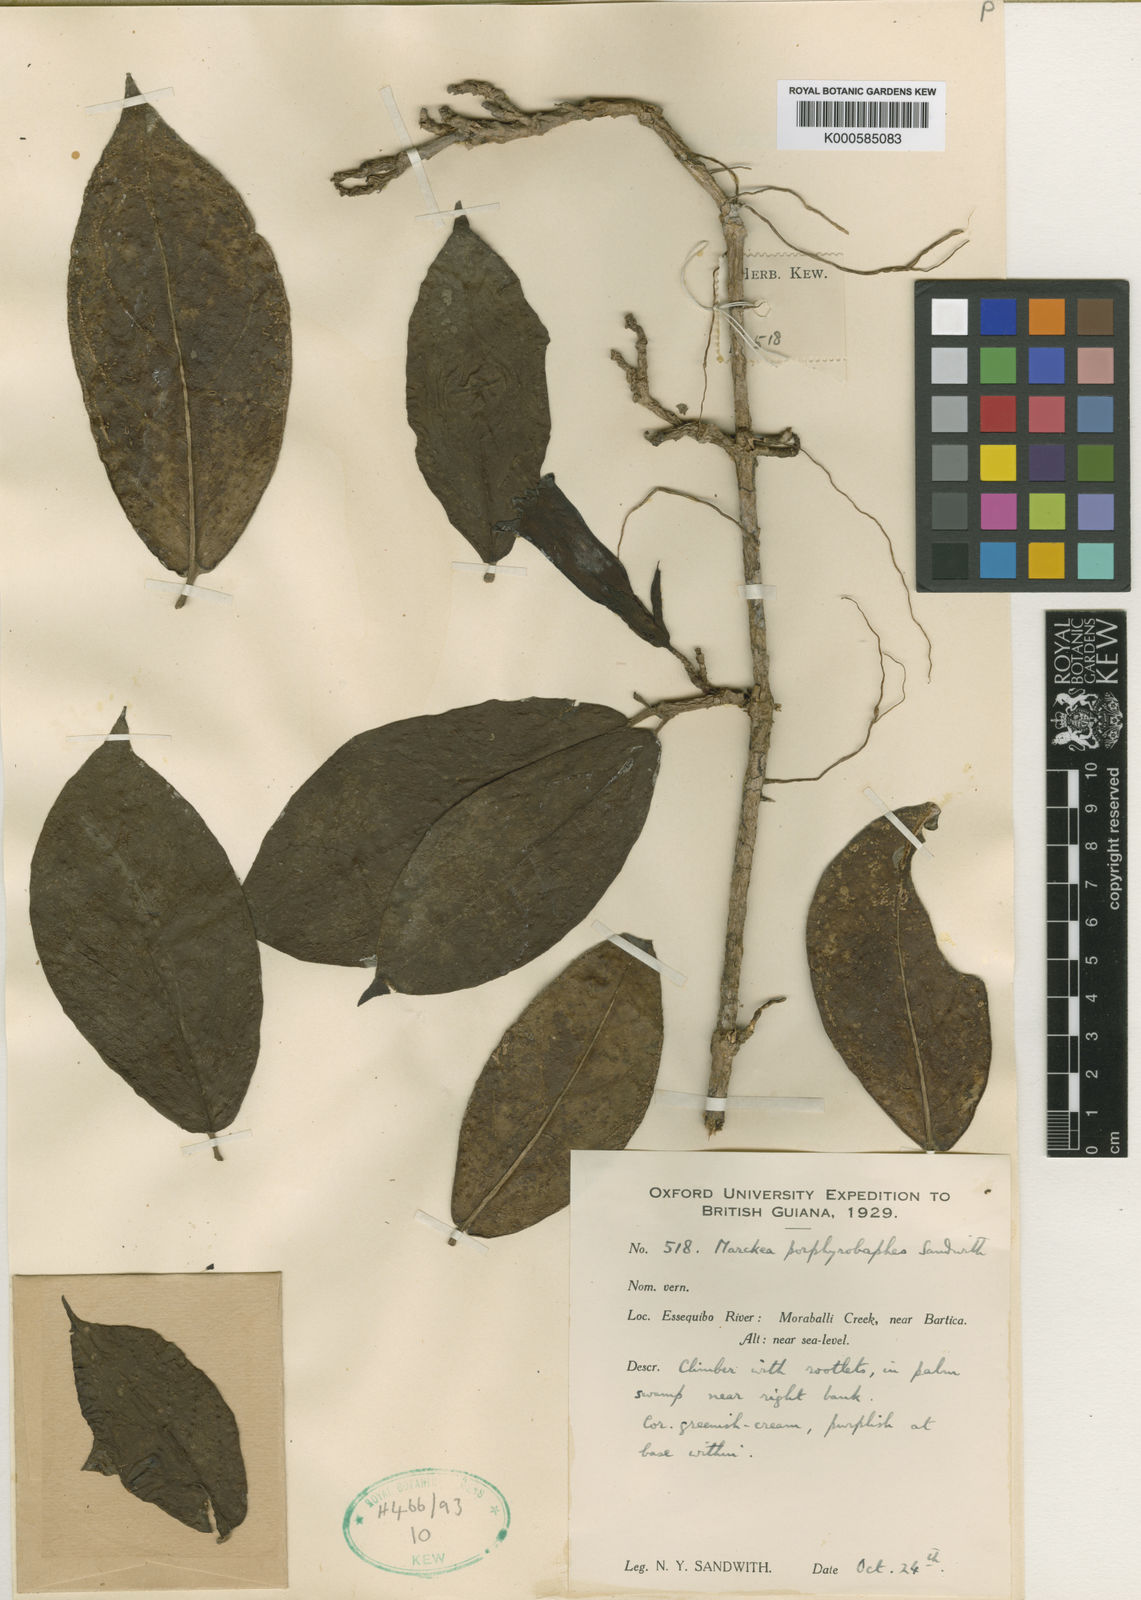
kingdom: Plantae
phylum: Tracheophyta
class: Magnoliopsida
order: Solanales
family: Solanaceae
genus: Markea
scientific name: Markea sessiliflora
